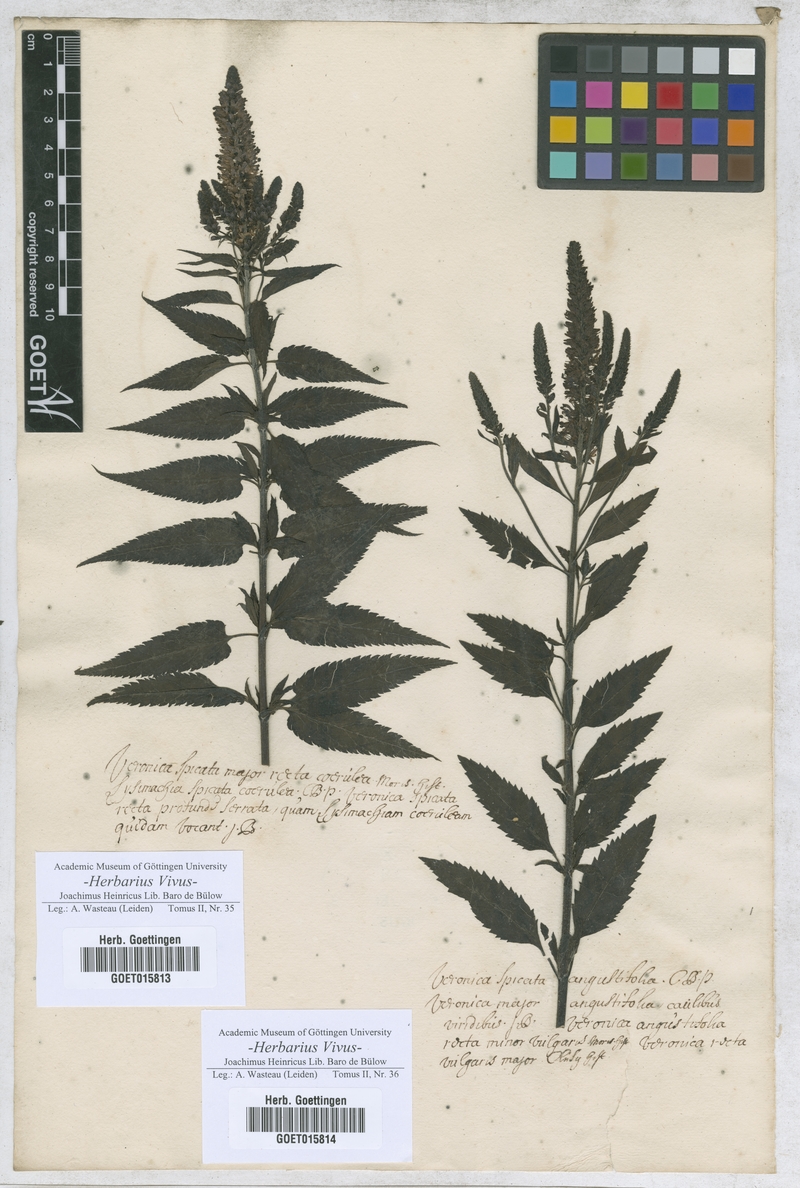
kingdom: Plantae
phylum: Tracheophyta
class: Magnoliopsida
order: Lamiales
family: Plantaginaceae
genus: Veronica
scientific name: Veronica
